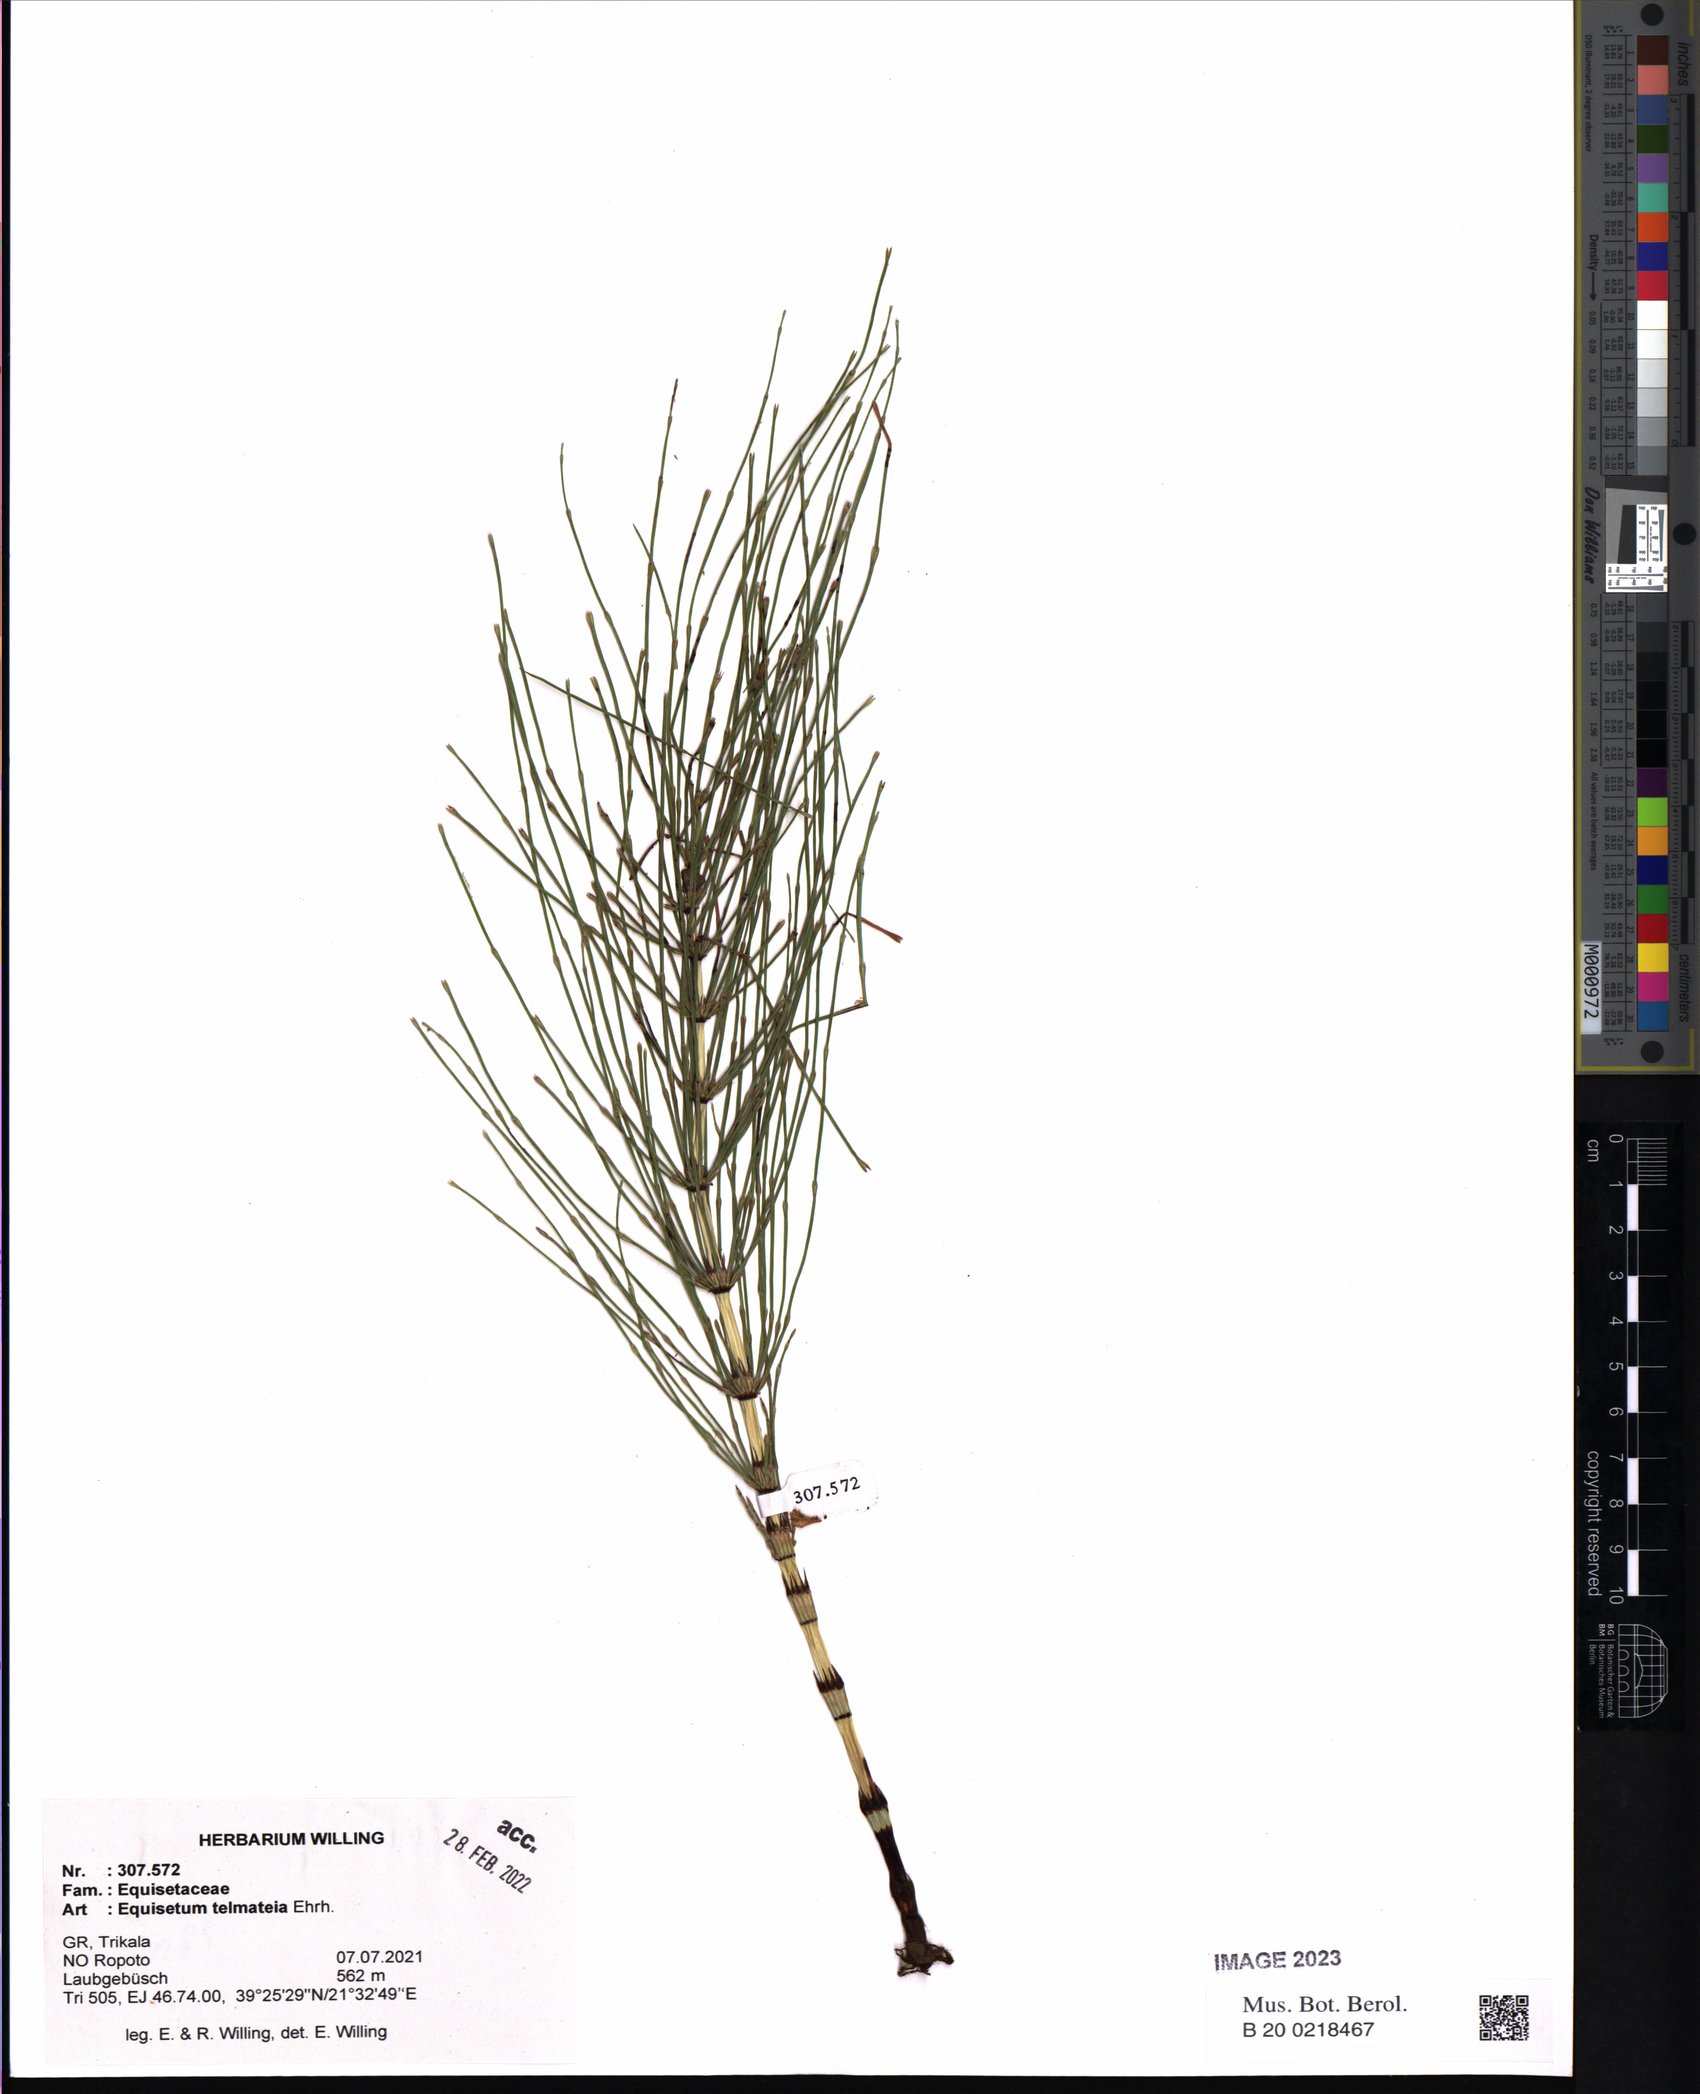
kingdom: Plantae
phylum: Tracheophyta
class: Polypodiopsida
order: Equisetales
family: Equisetaceae
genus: Equisetum
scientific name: Equisetum telmateia
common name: Great horsetail
